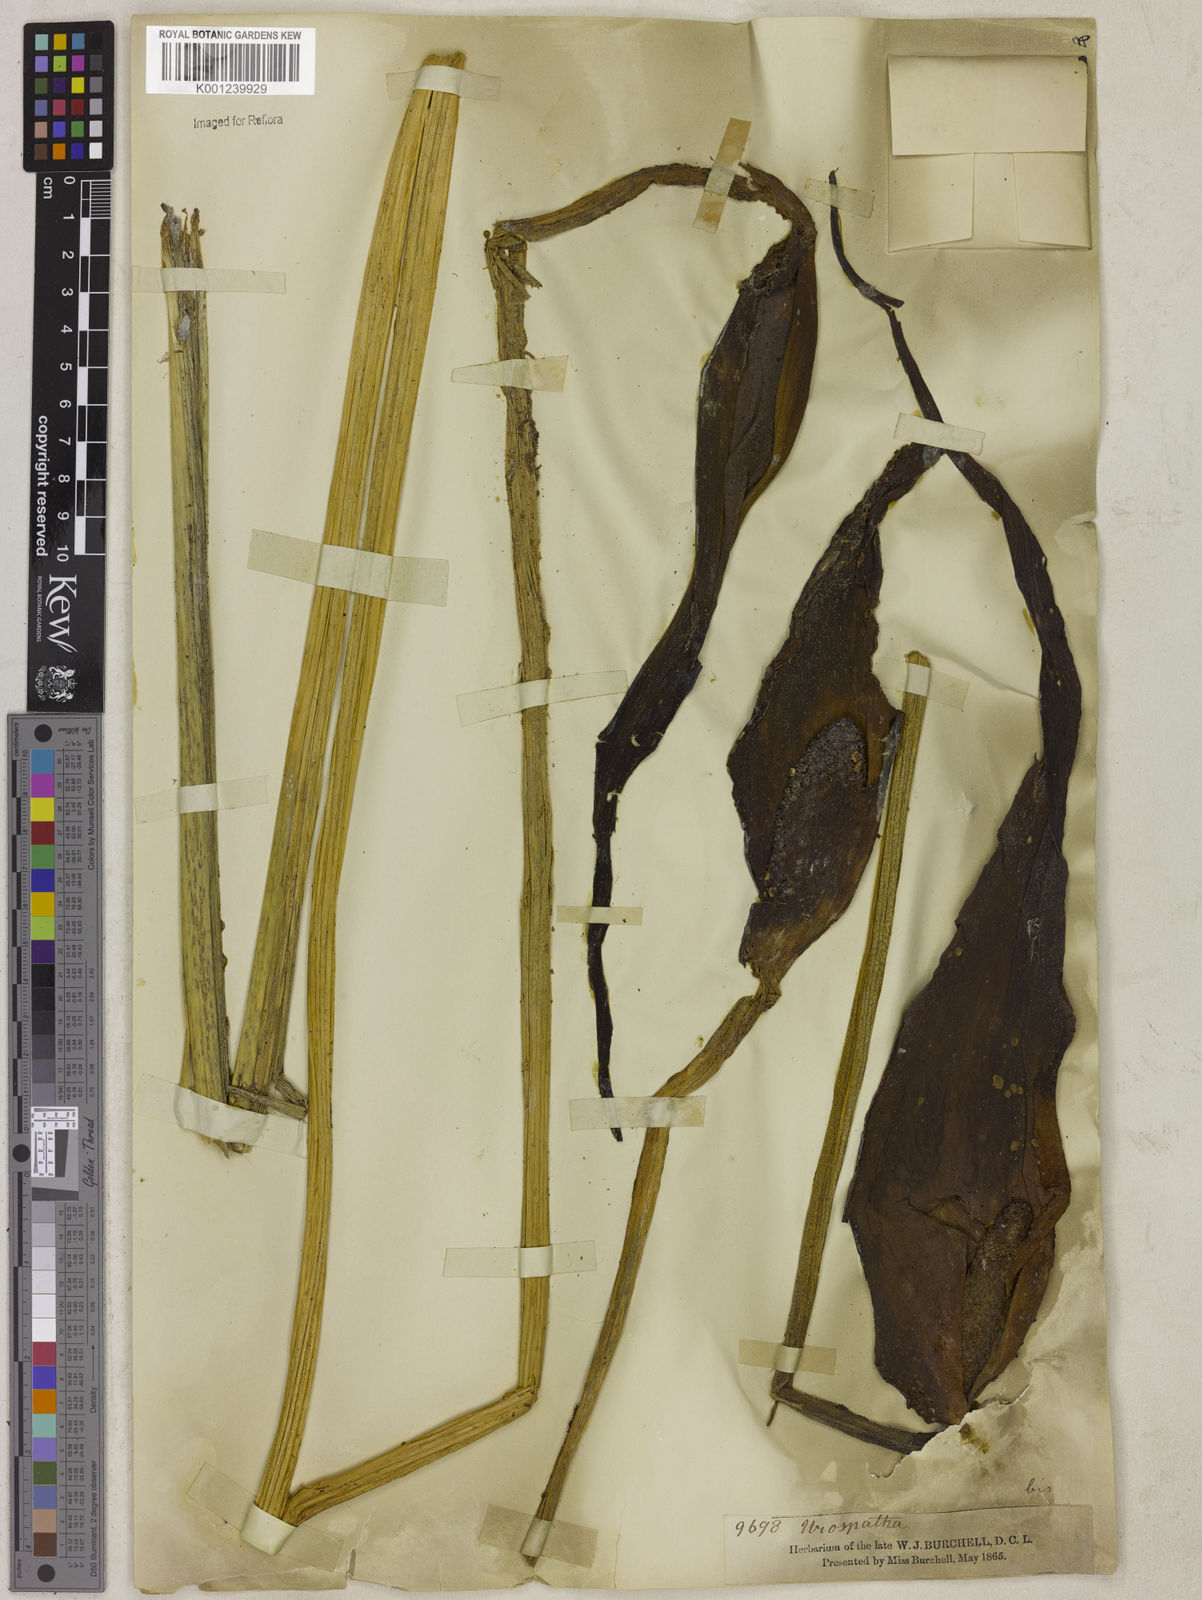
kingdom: Plantae
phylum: Tracheophyta
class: Liliopsida
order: Alismatales
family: Araceae
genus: Urospatha
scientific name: Urospatha sagittifolia
